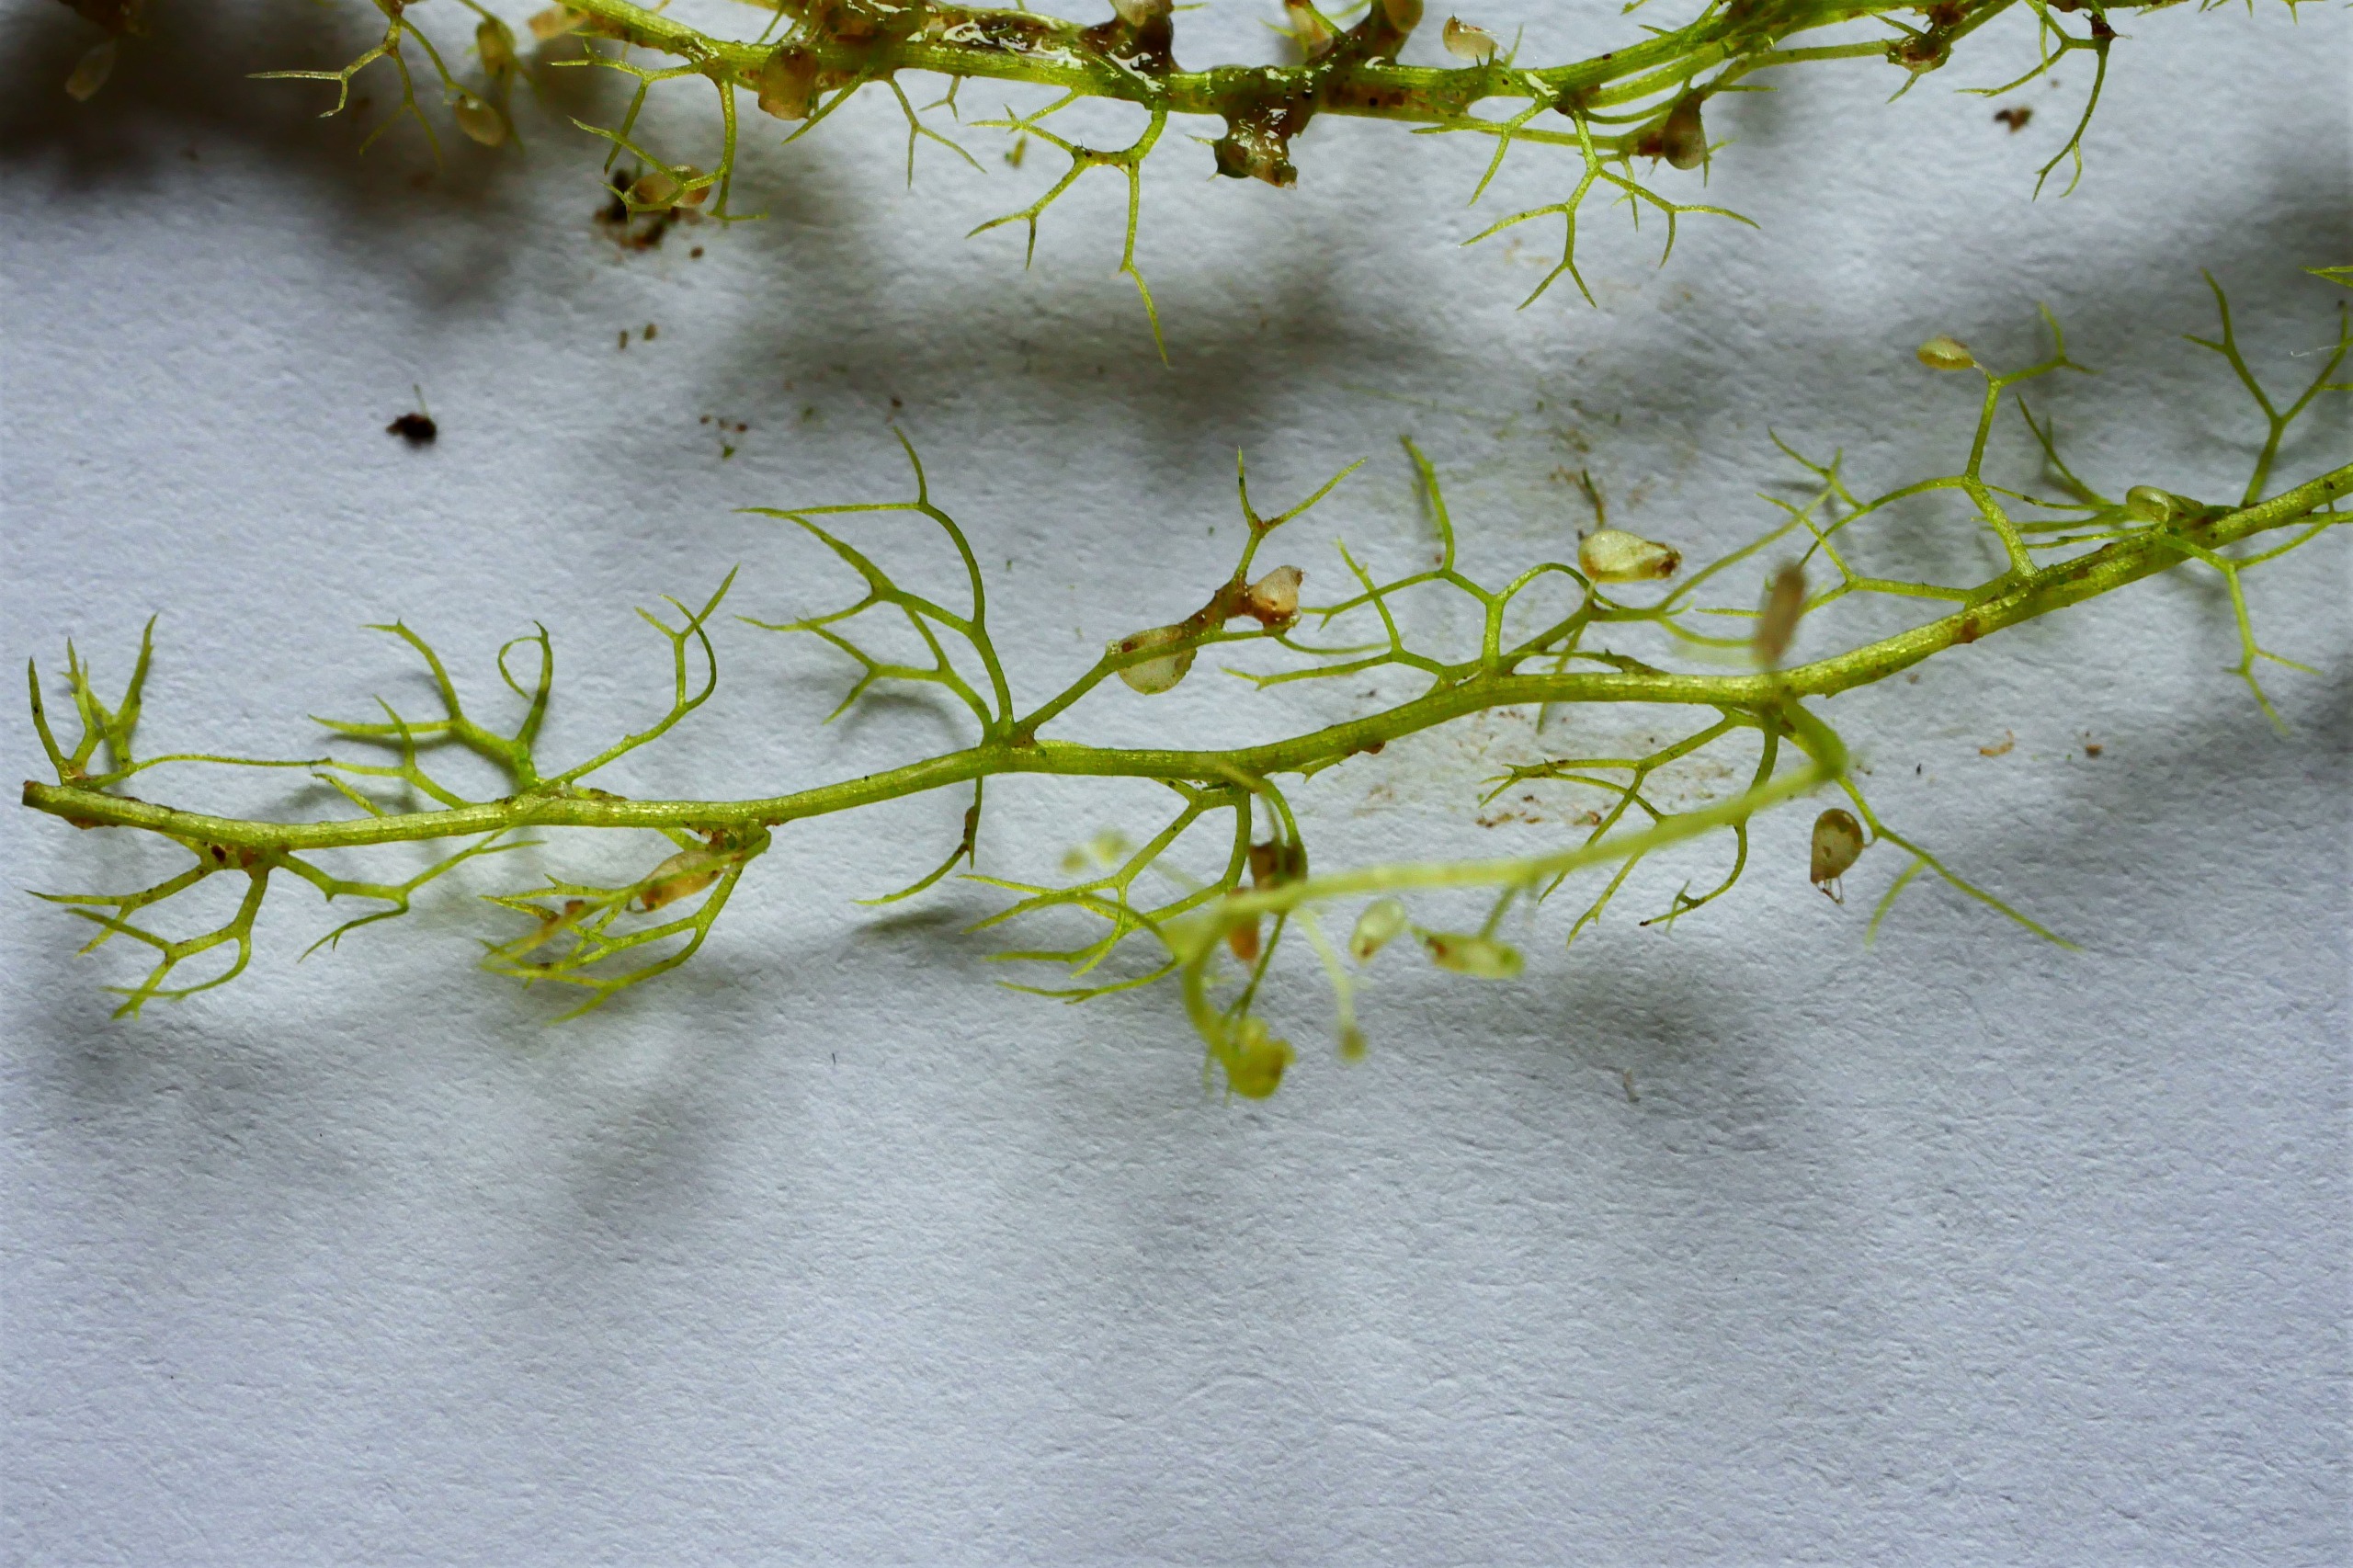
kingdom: Plantae
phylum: Tracheophyta
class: Magnoliopsida
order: Lamiales
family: Lentibulariaceae
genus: Utricularia
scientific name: Utricularia minor
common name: Liden blærerod
